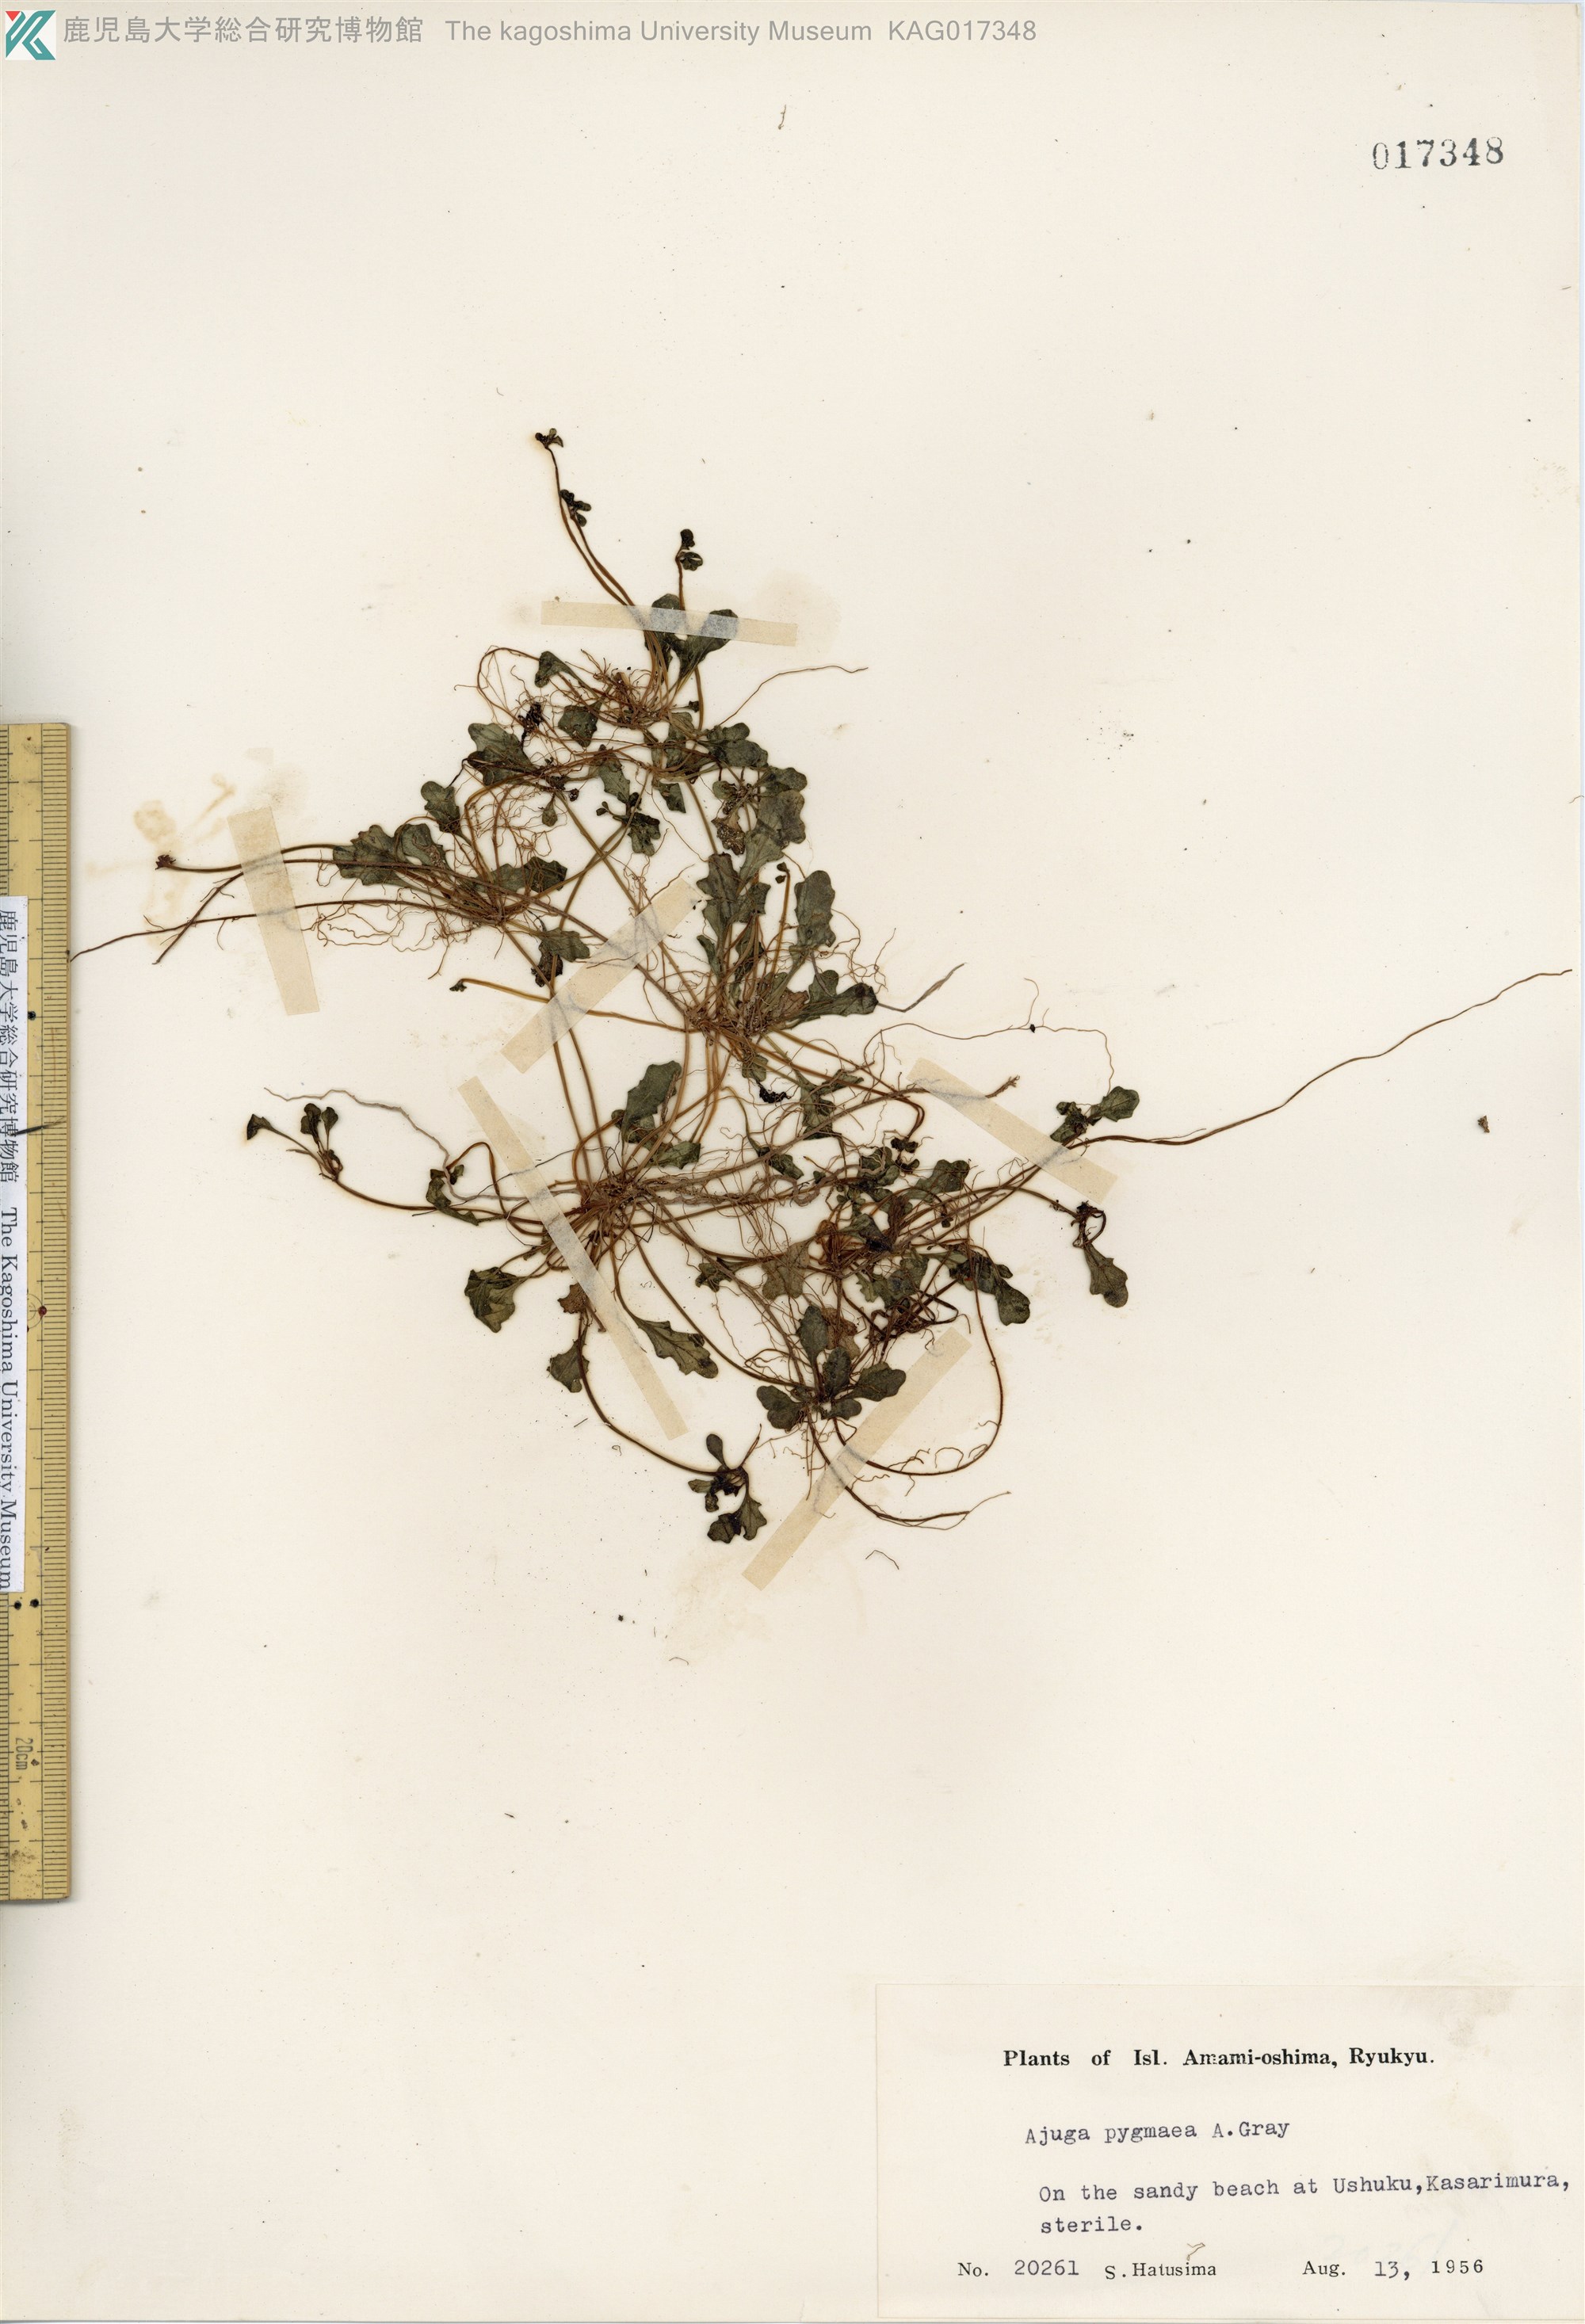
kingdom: Plantae
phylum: Tracheophyta
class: Magnoliopsida
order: Lamiales
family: Lamiaceae
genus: Ajuga
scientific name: Ajuga pygmaea
